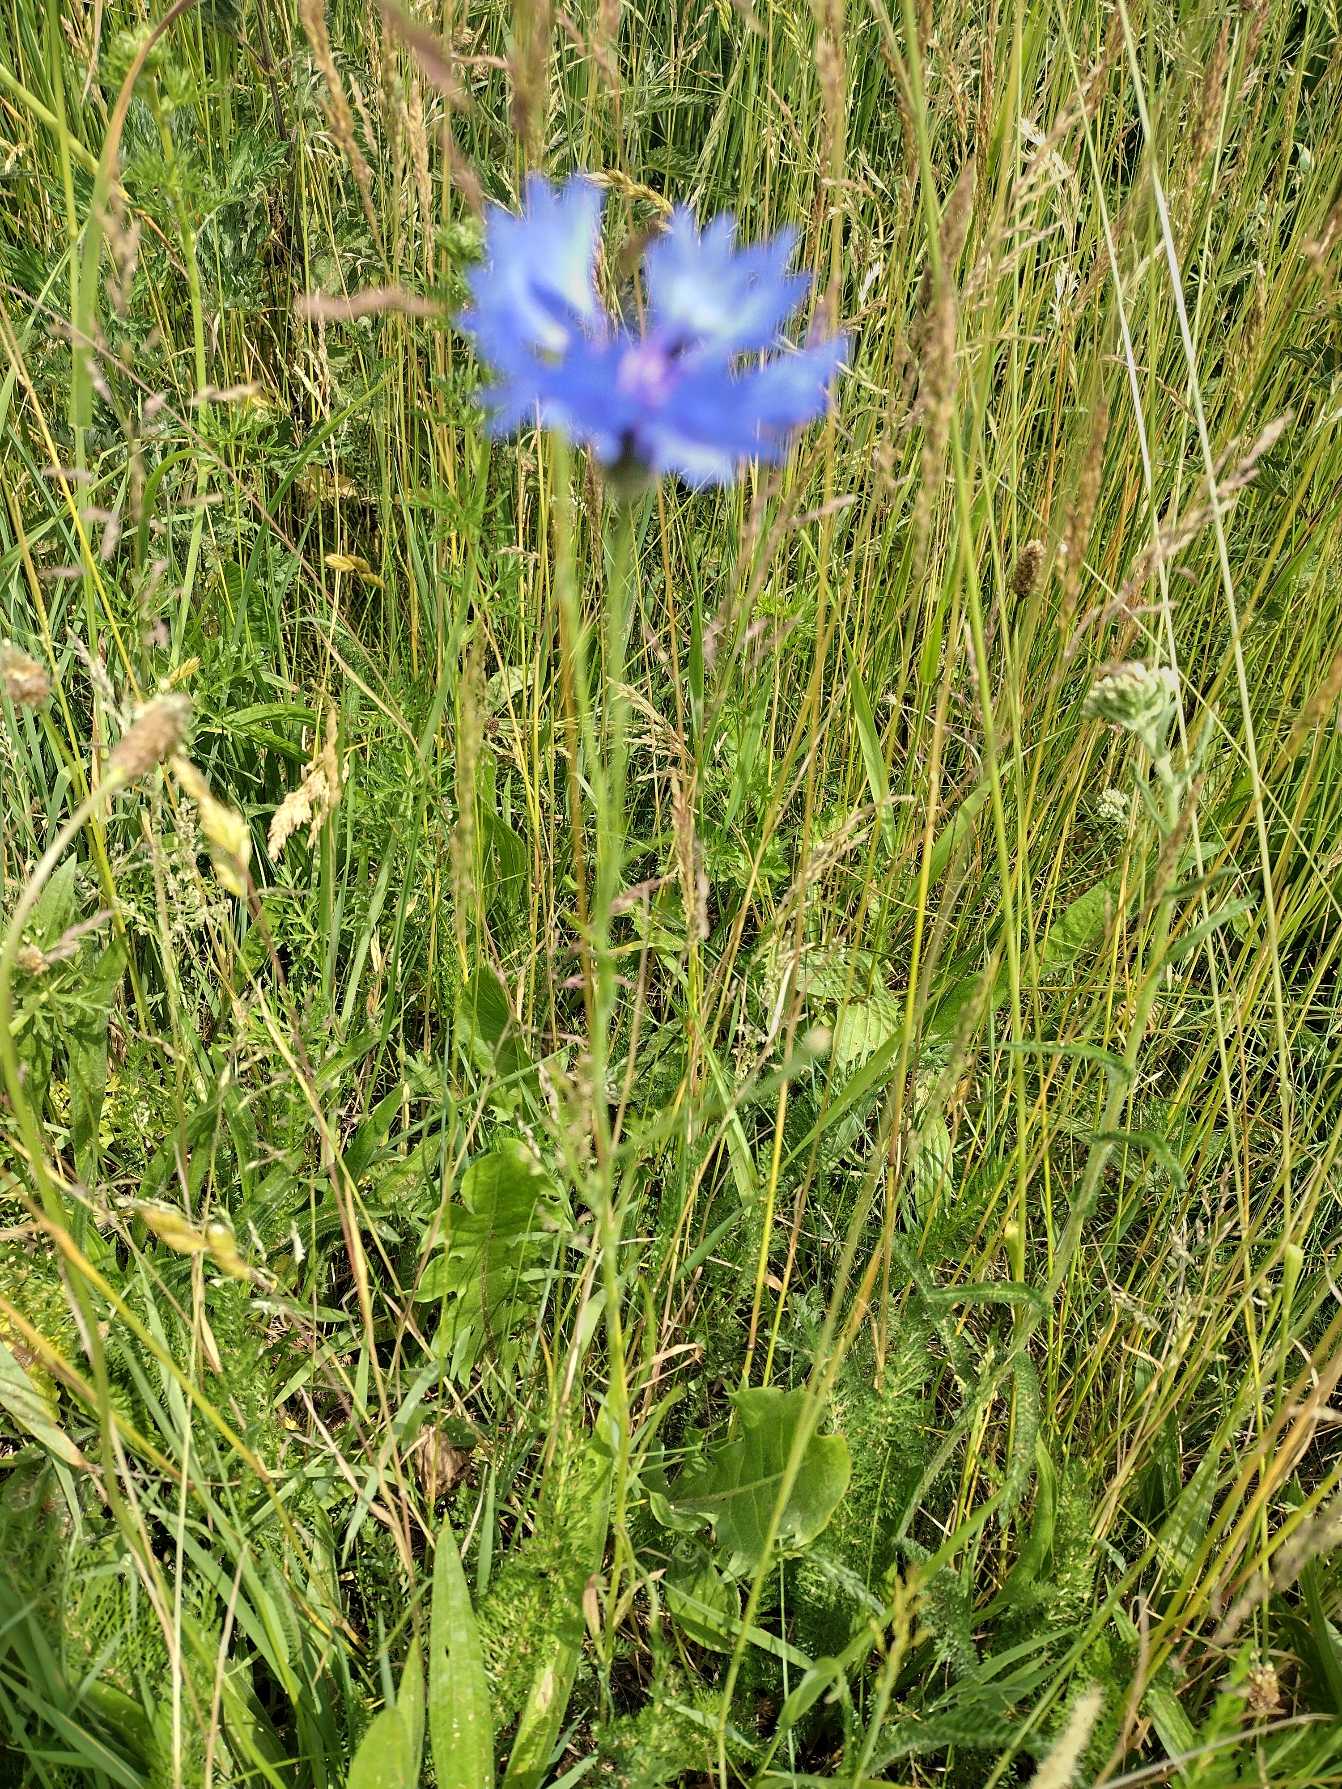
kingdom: Plantae
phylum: Tracheophyta
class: Magnoliopsida
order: Asterales
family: Asteraceae
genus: Centaurea
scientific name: Centaurea cyanus
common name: Kornblomst
